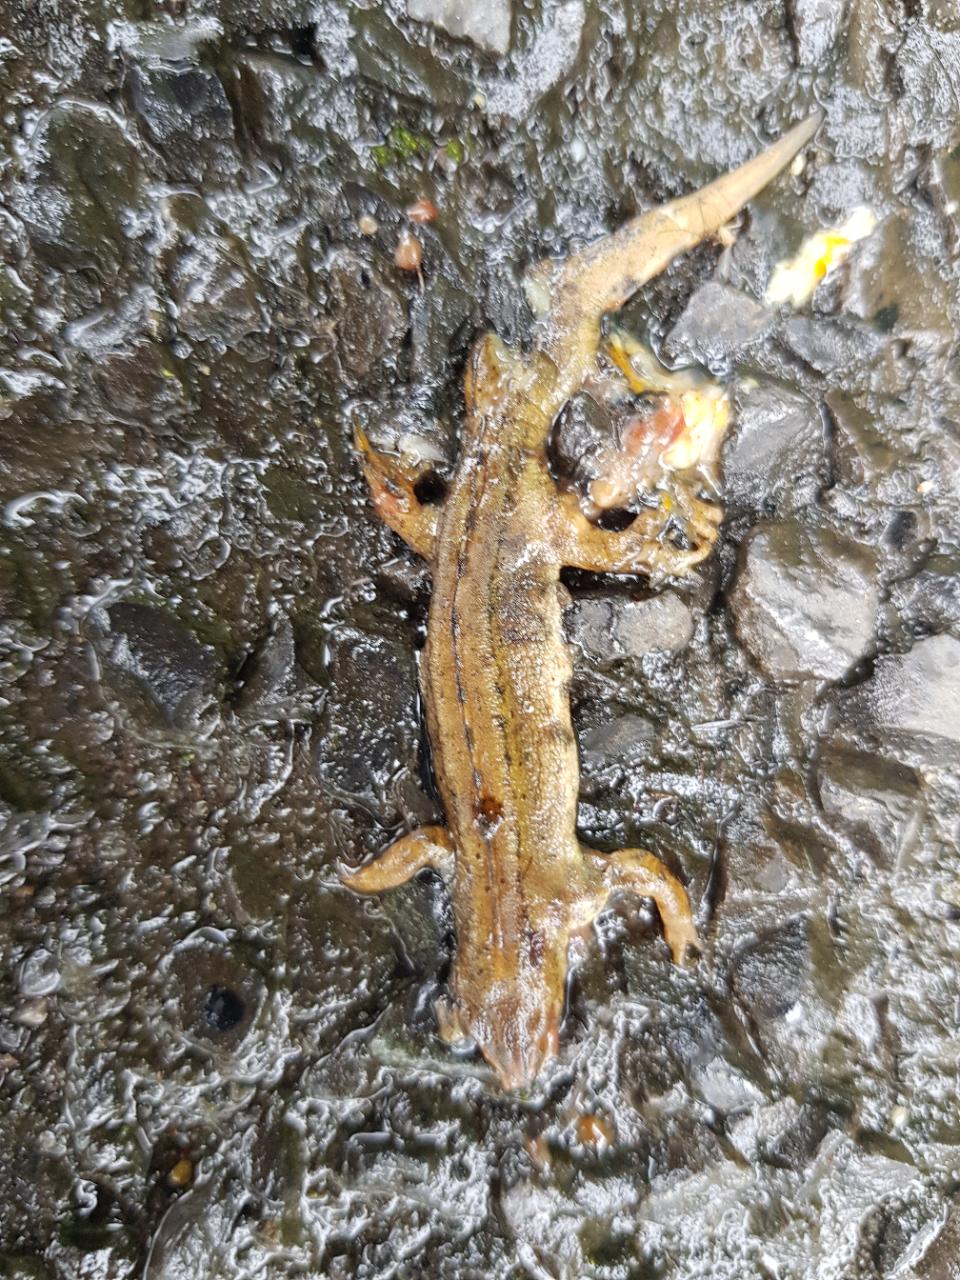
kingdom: Animalia
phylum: Chordata
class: Amphibia
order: Caudata
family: Salamandridae
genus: Lissotriton
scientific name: Lissotriton vulgaris
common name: Smooth newt
